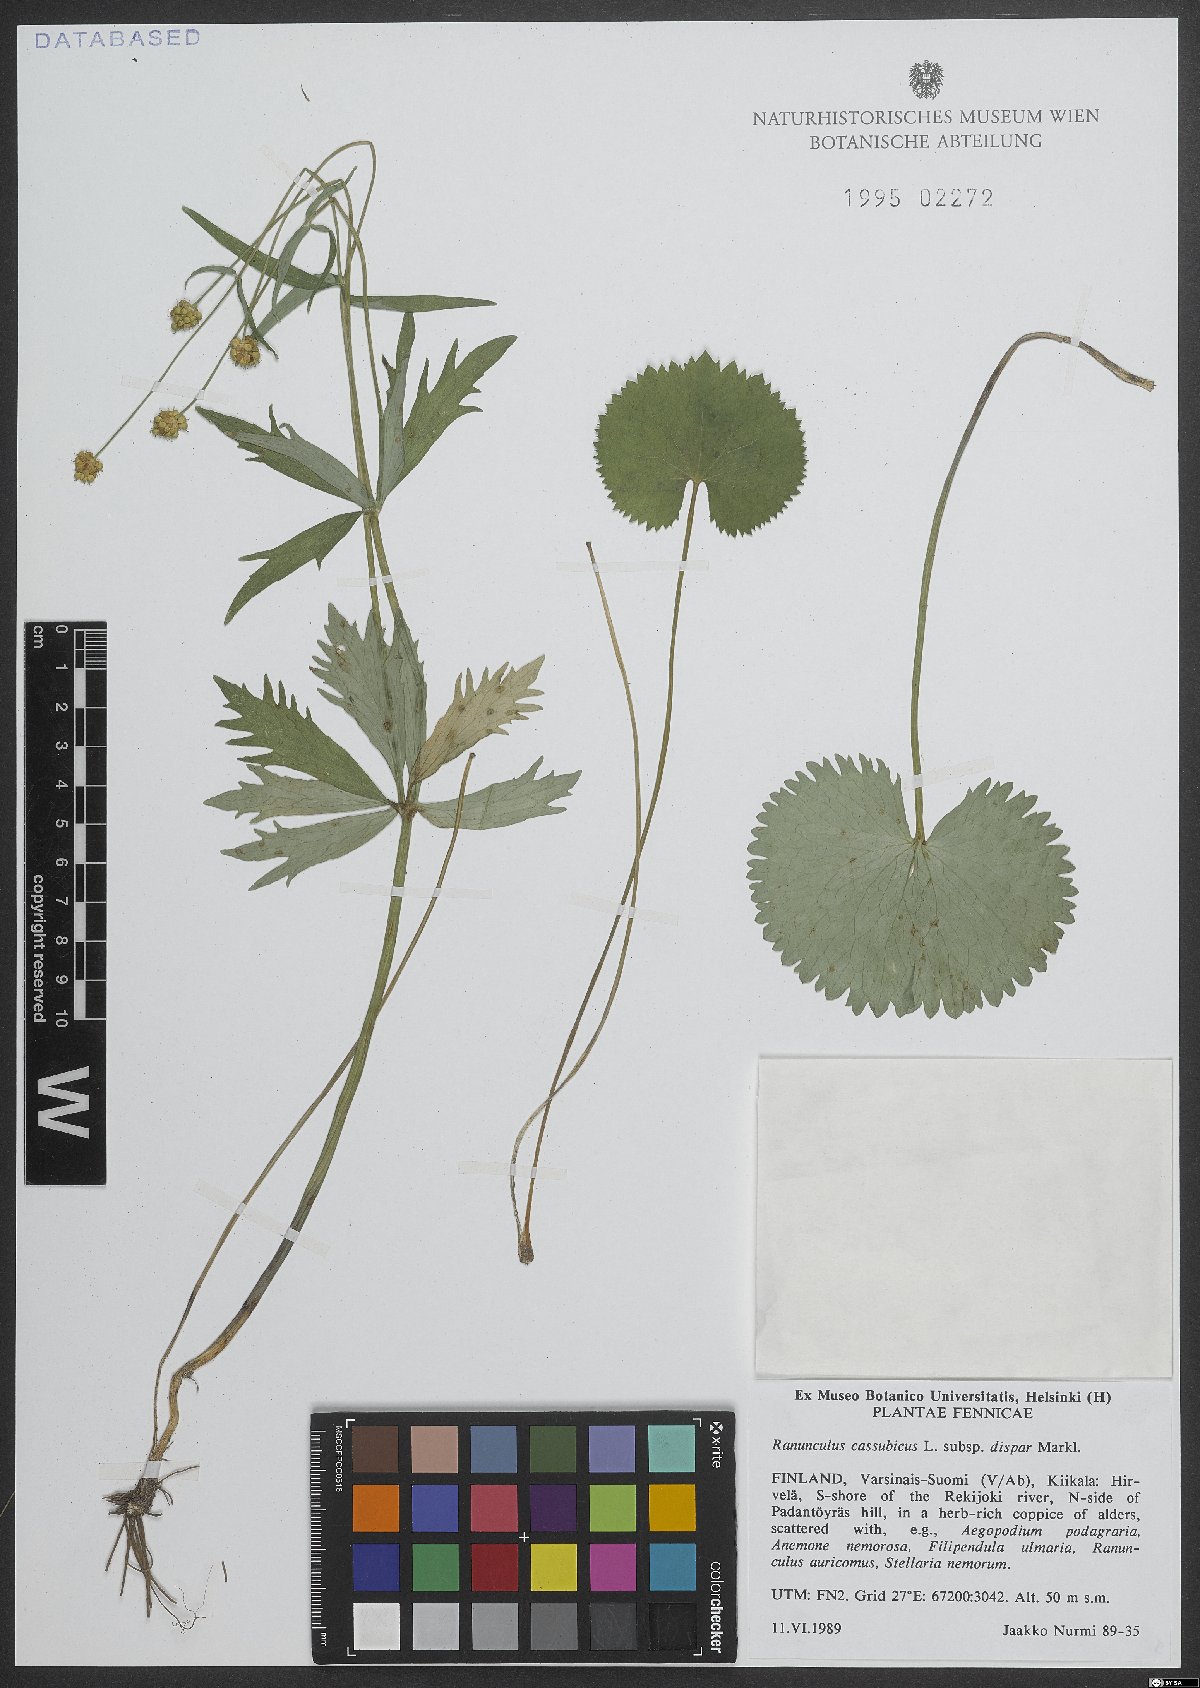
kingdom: Plantae
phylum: Tracheophyta
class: Magnoliopsida
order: Ranunculales
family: Ranunculaceae
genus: Ranunculus
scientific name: Ranunculus cassubicus
